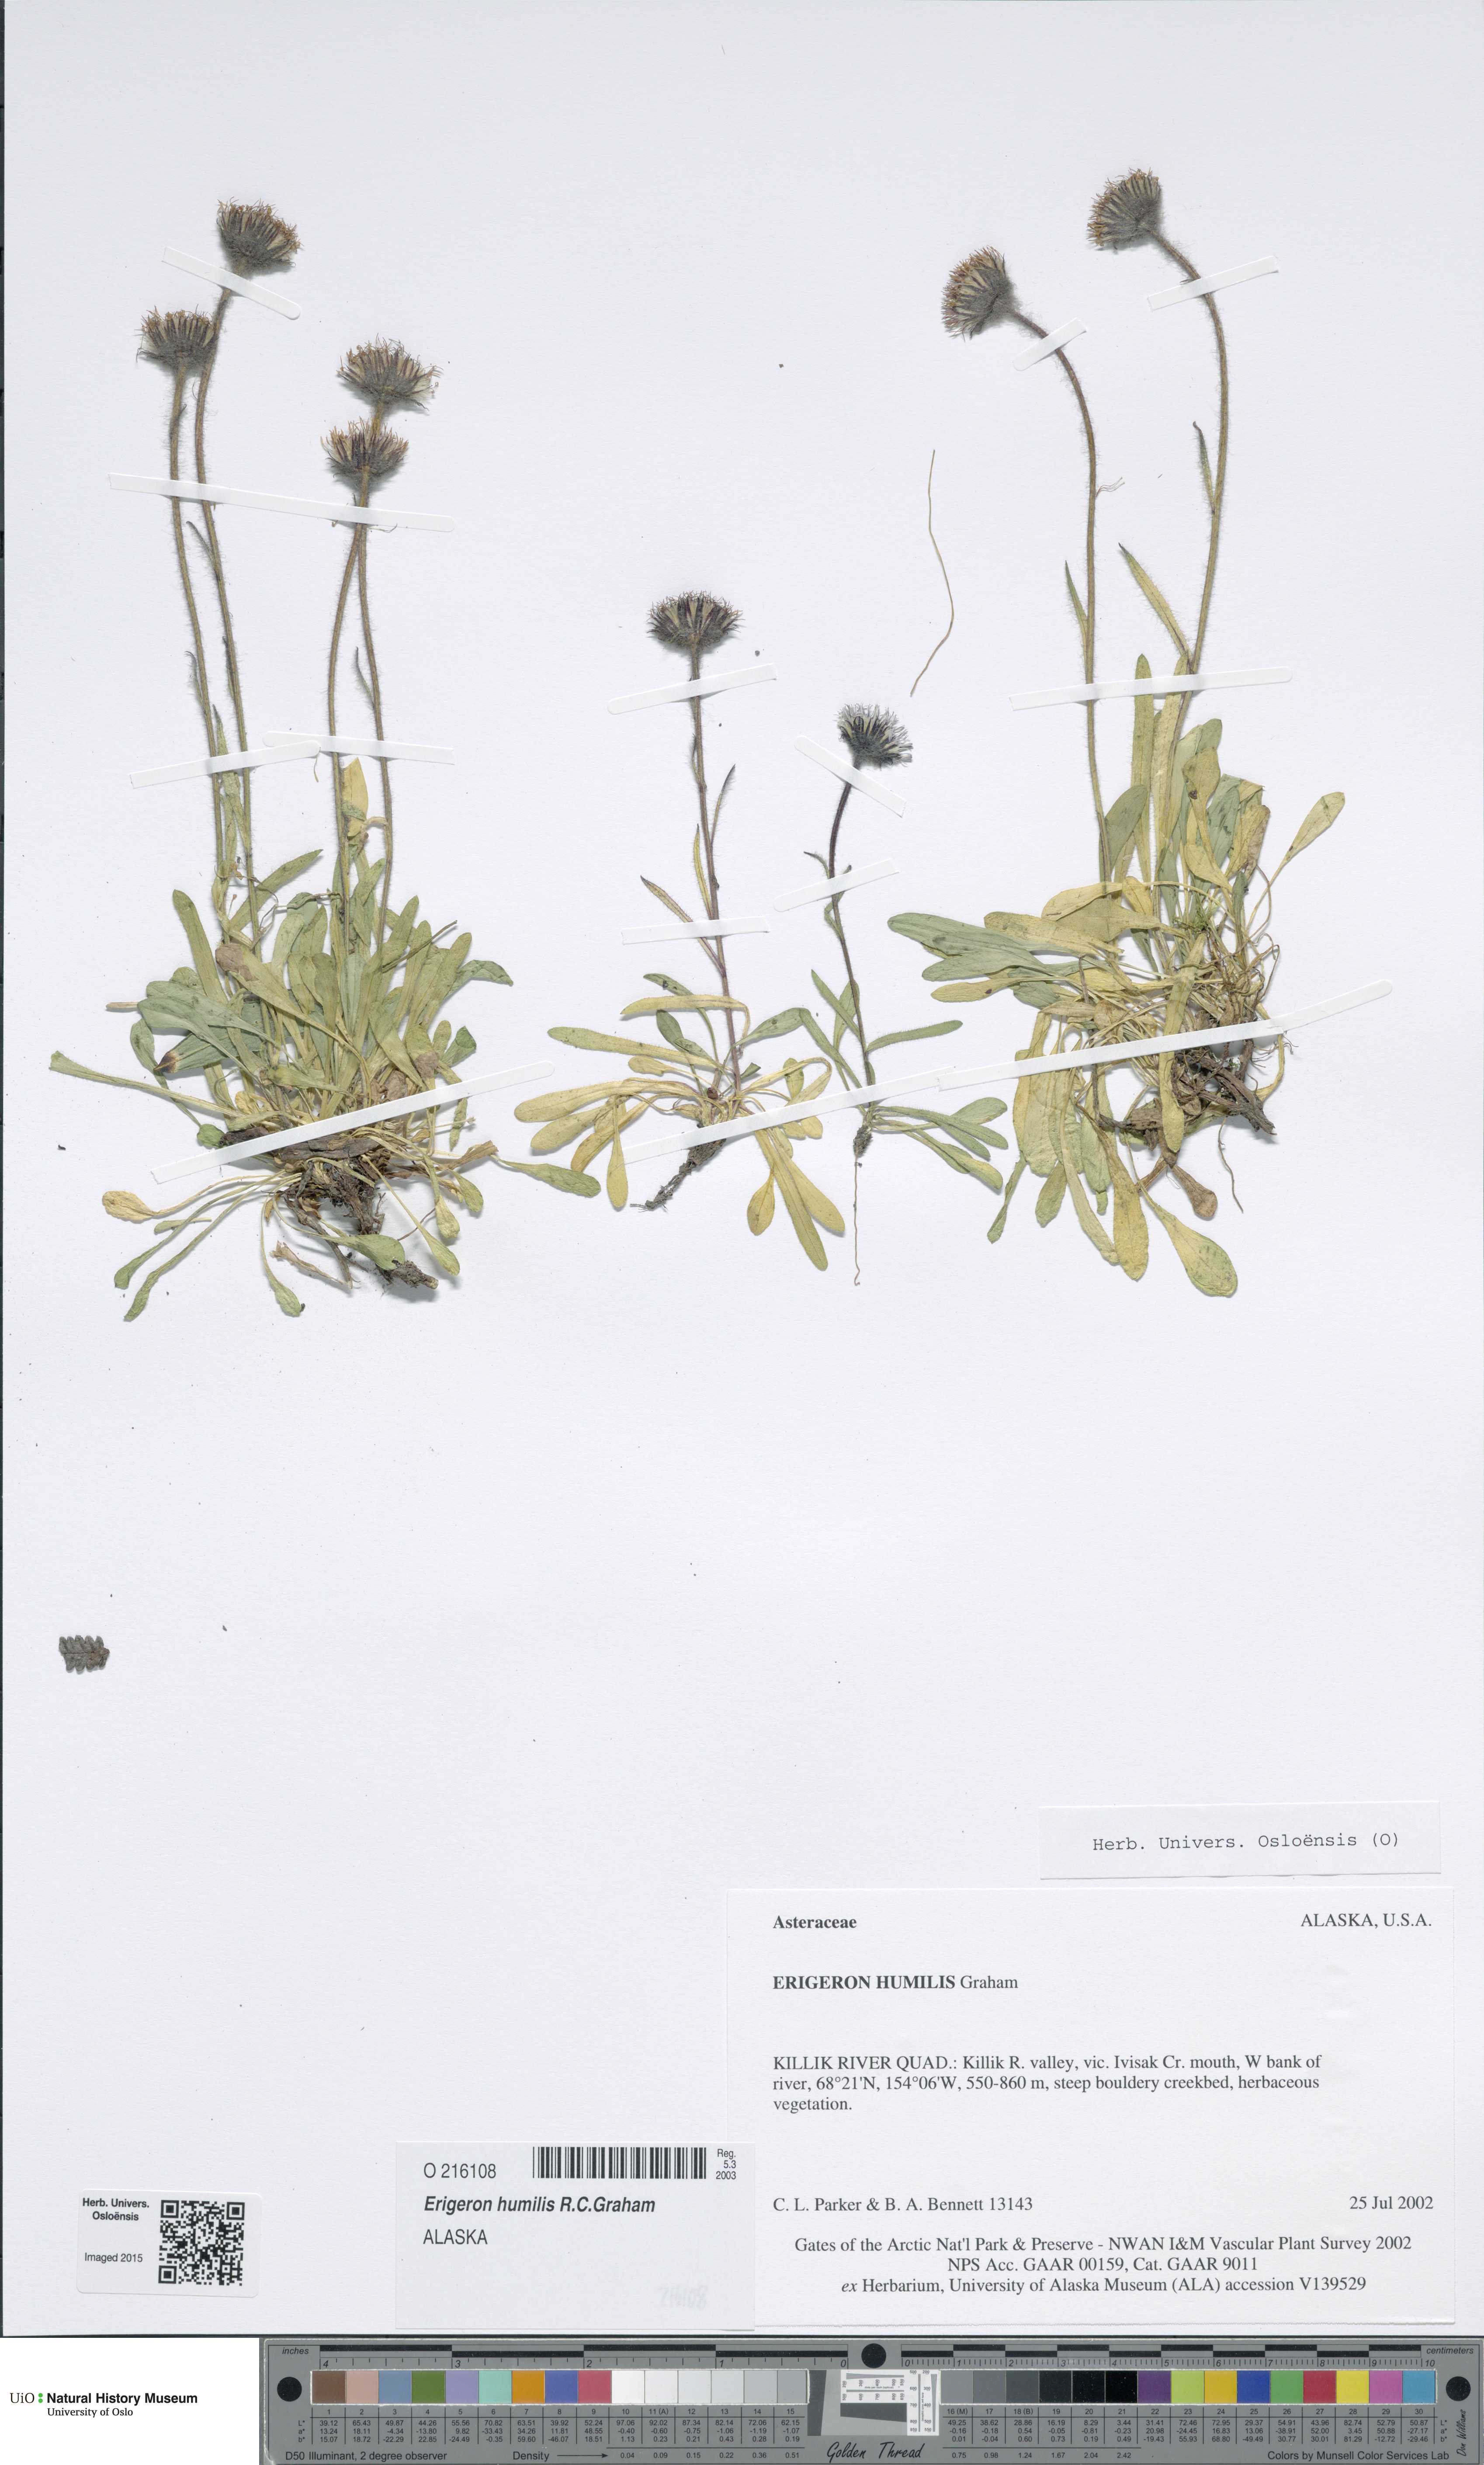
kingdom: Plantae
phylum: Tracheophyta
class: Magnoliopsida
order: Asterales
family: Asteraceae
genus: Erigeron
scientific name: Erigeron humilis
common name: Arctic-alpine fleabane
